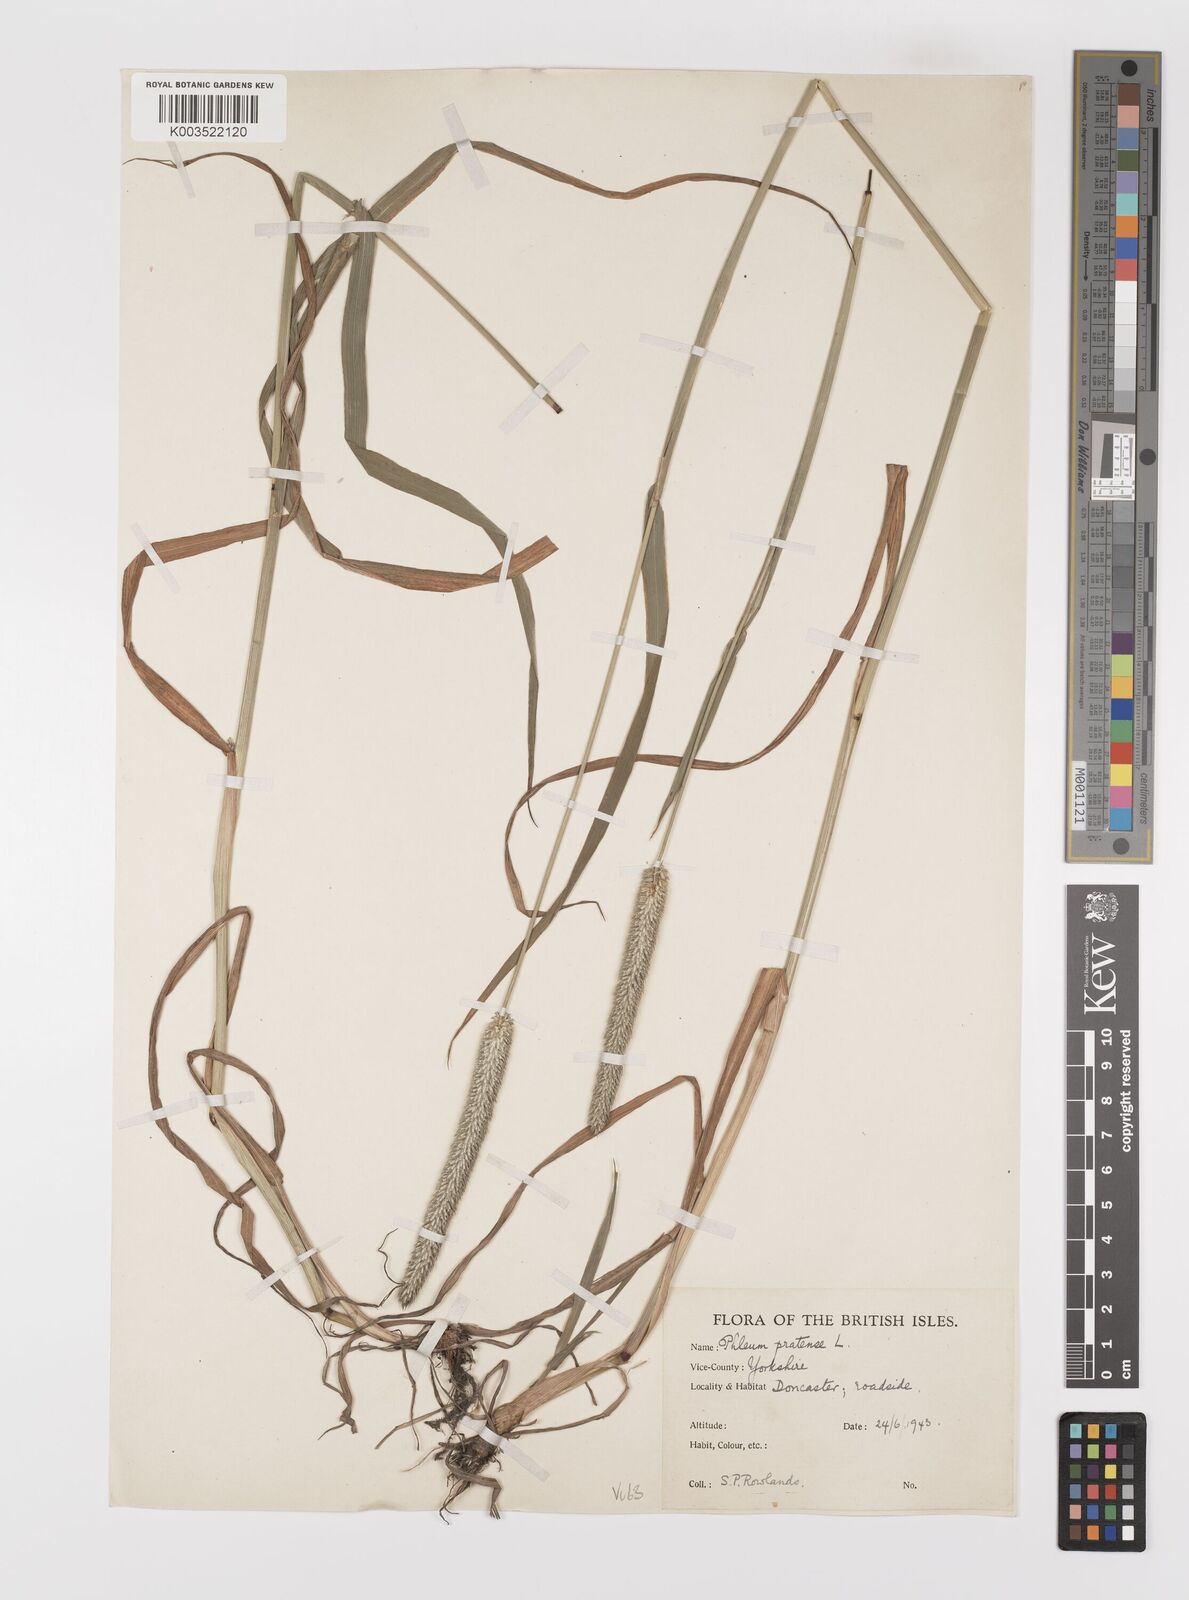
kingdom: Plantae
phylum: Tracheophyta
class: Liliopsida
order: Poales
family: Poaceae
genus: Phleum
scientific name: Phleum pratense
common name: Timothy grass
